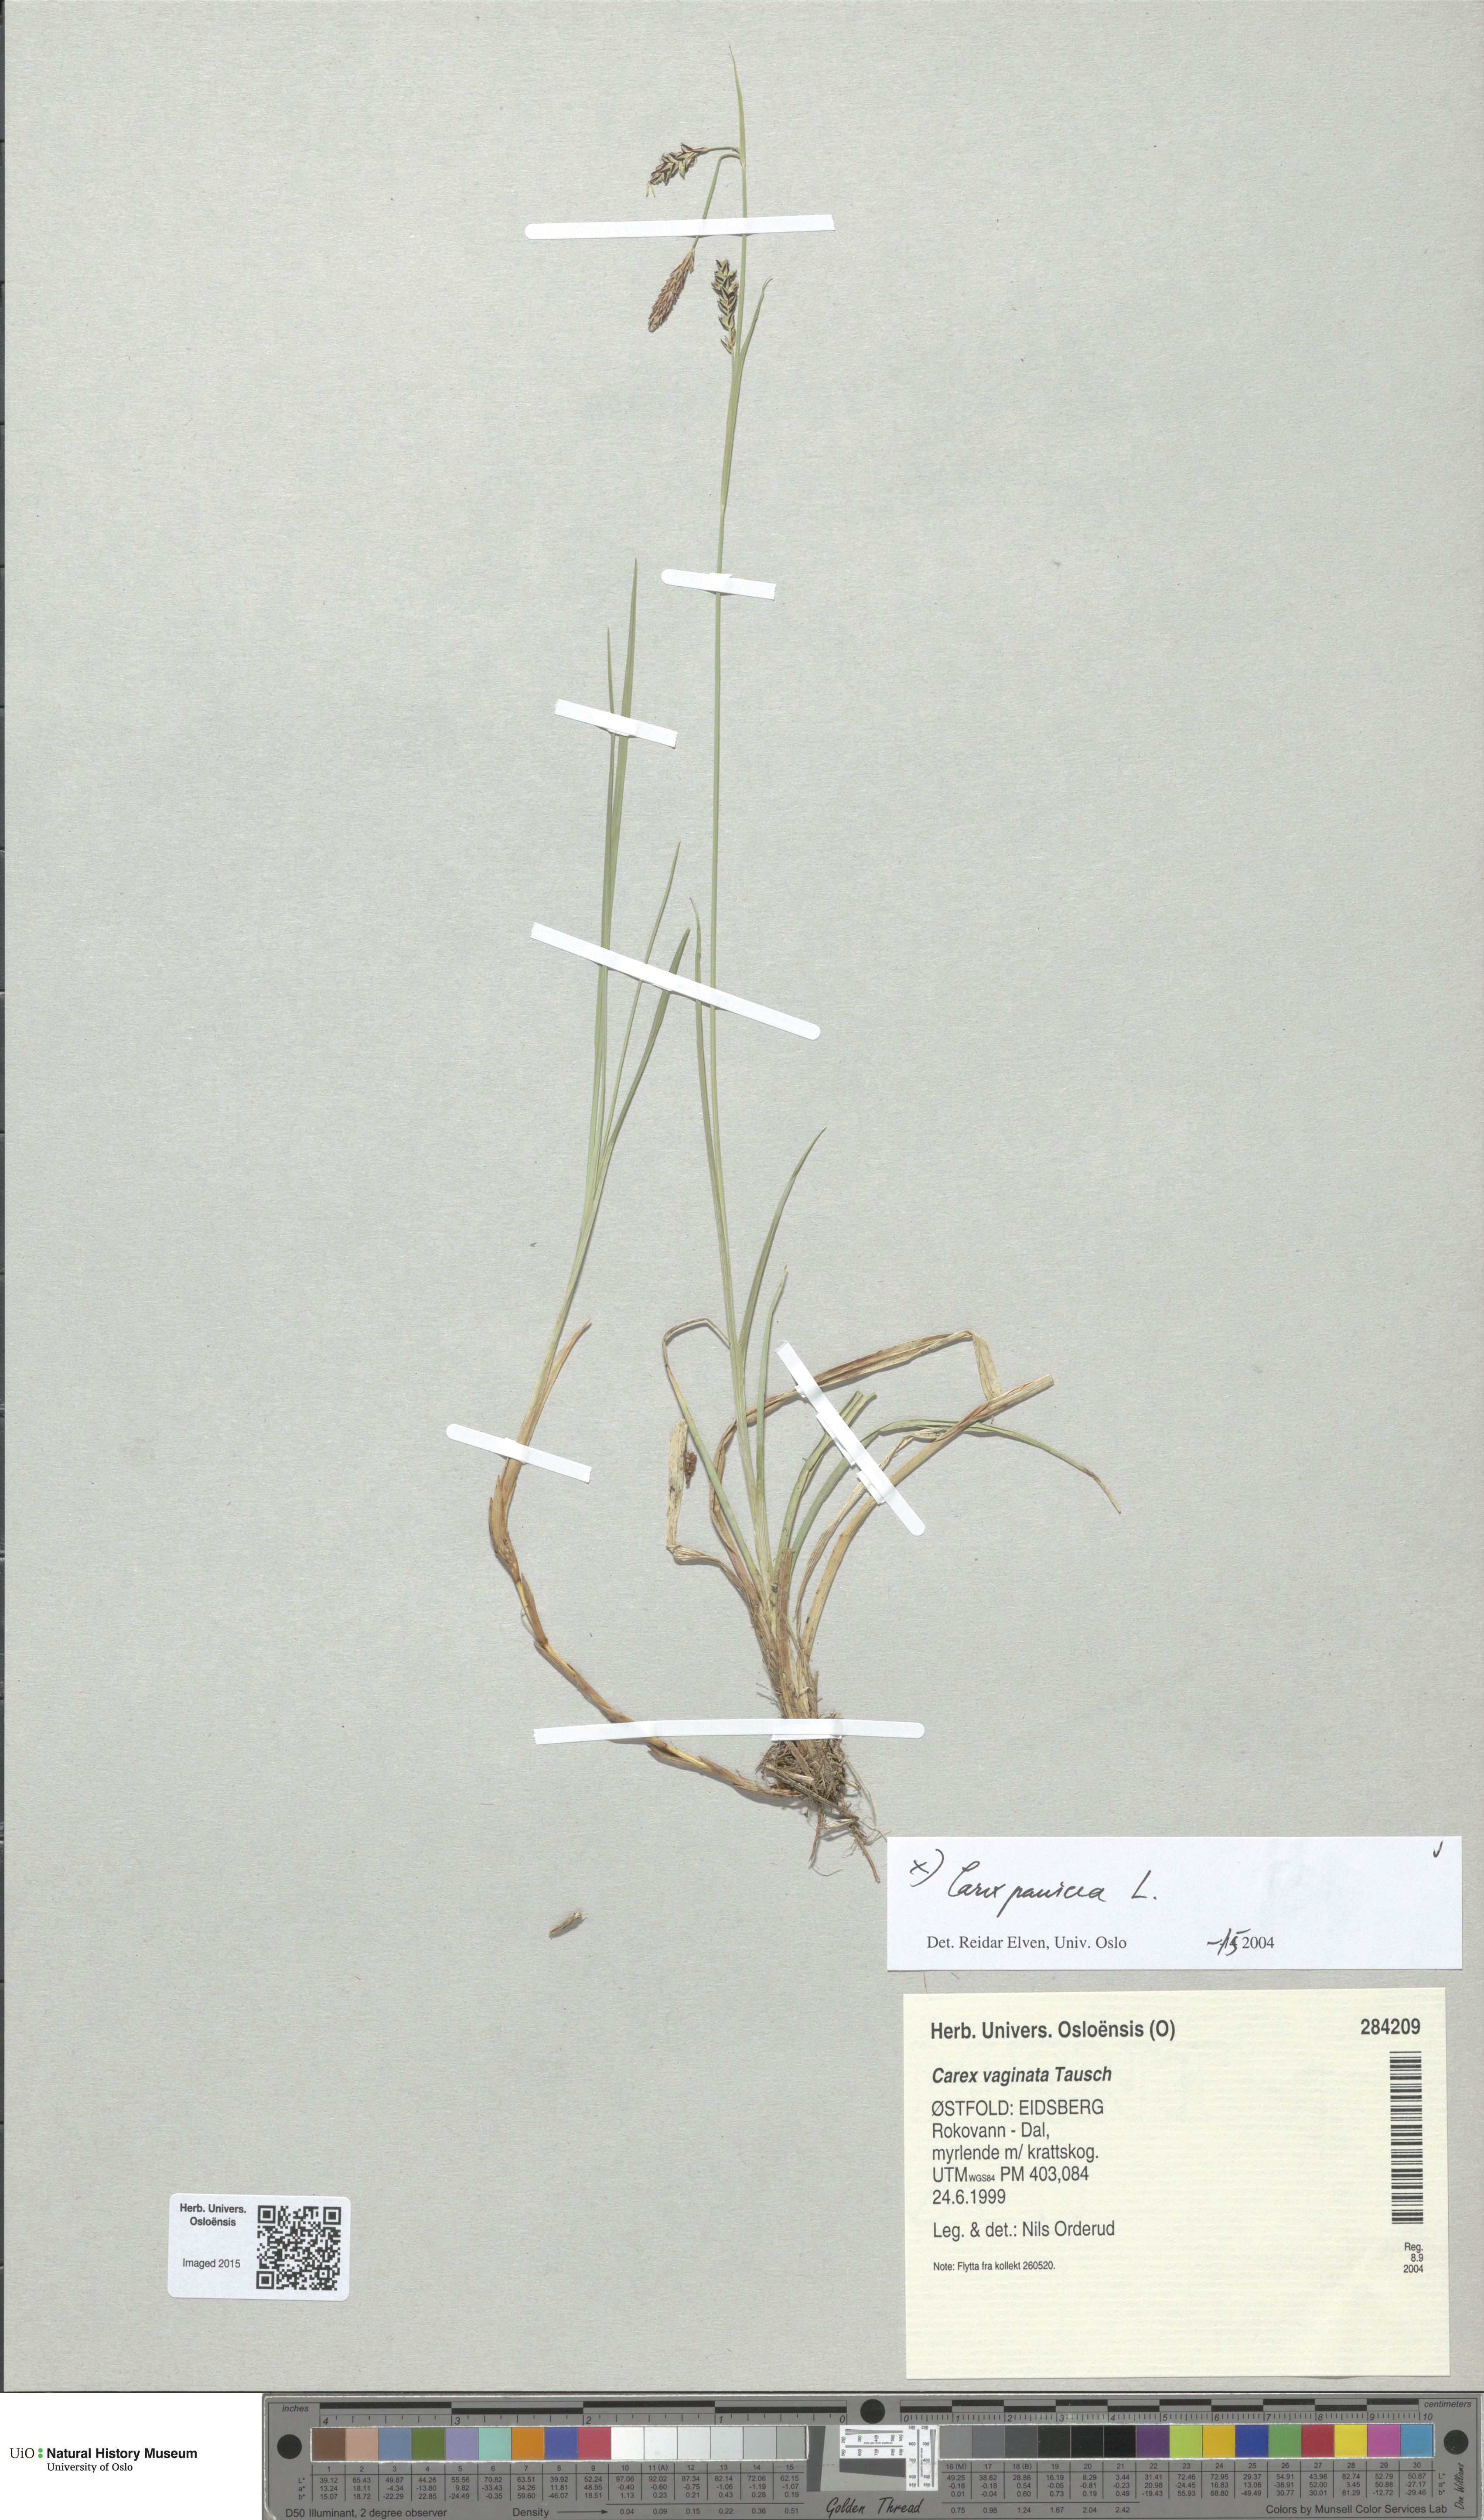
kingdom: Plantae
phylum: Tracheophyta
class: Liliopsida
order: Poales
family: Cyperaceae
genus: Carex
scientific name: Carex panicea
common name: Carnation sedge
